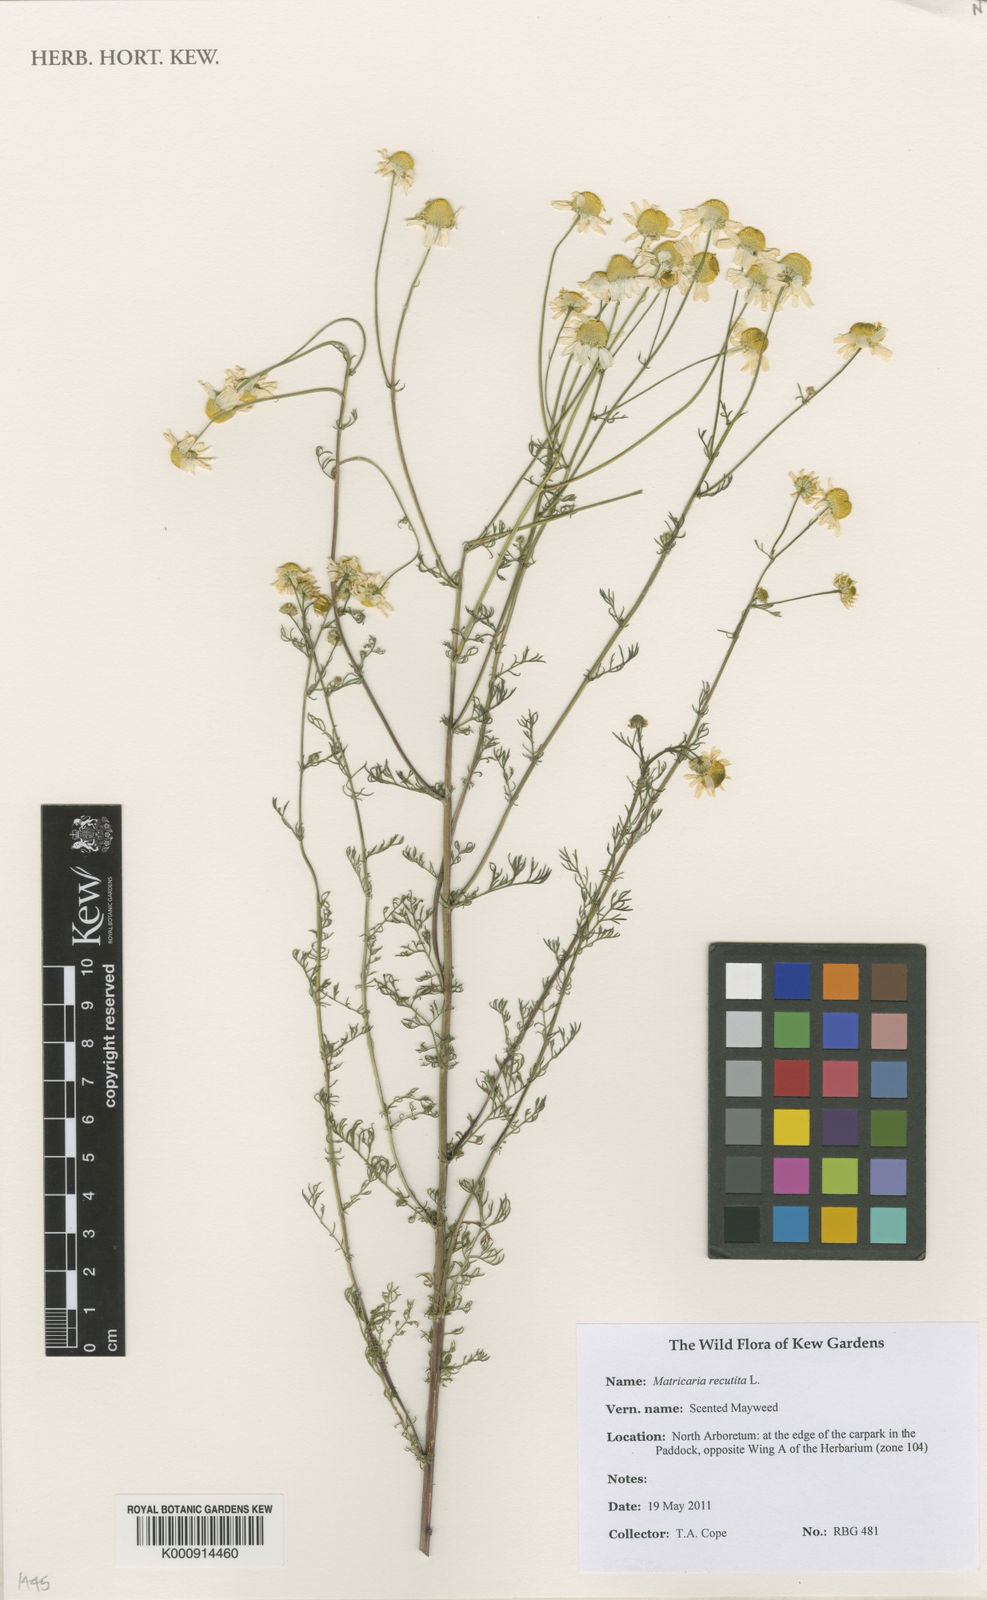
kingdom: Plantae
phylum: Tracheophyta
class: Magnoliopsida
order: Asterales
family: Asteraceae
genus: Matricaria
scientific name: Matricaria chamomilla
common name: Scented mayweed
